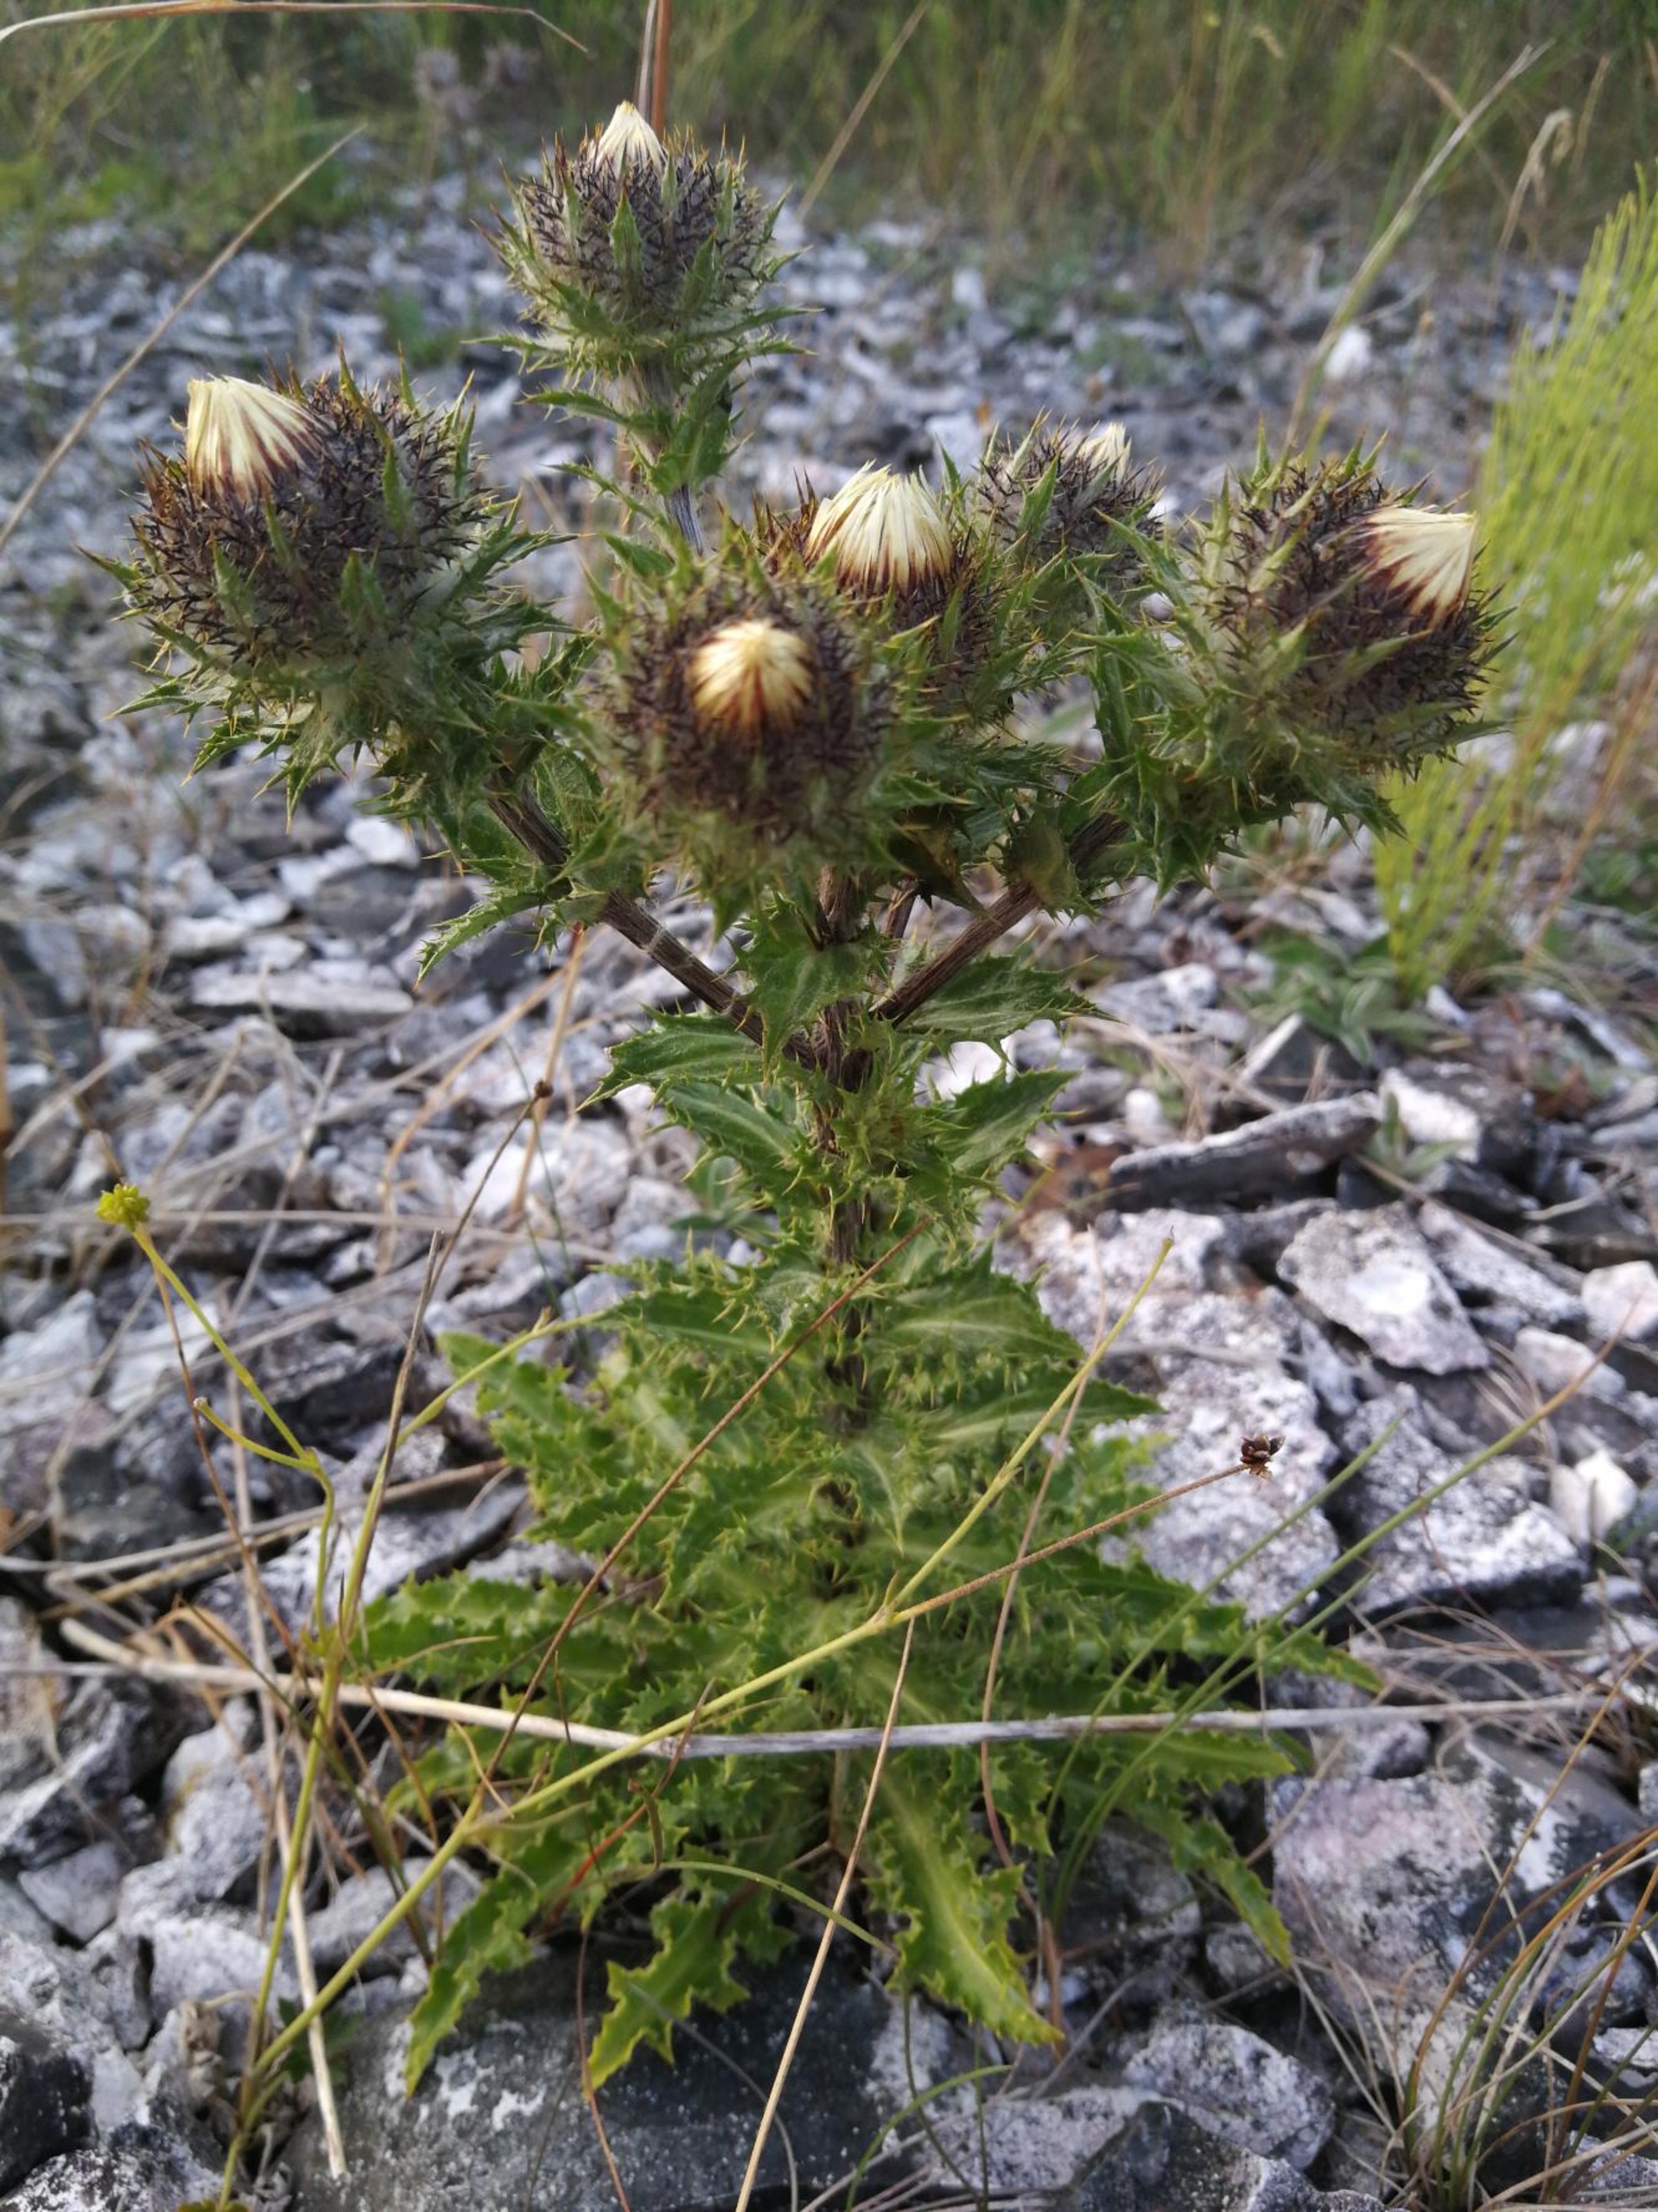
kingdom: Plantae
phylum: Tracheophyta
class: Magnoliopsida
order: Asterales
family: Asteraceae
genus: Carlina
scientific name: Carlina vulgaris
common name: Bakketidsel
